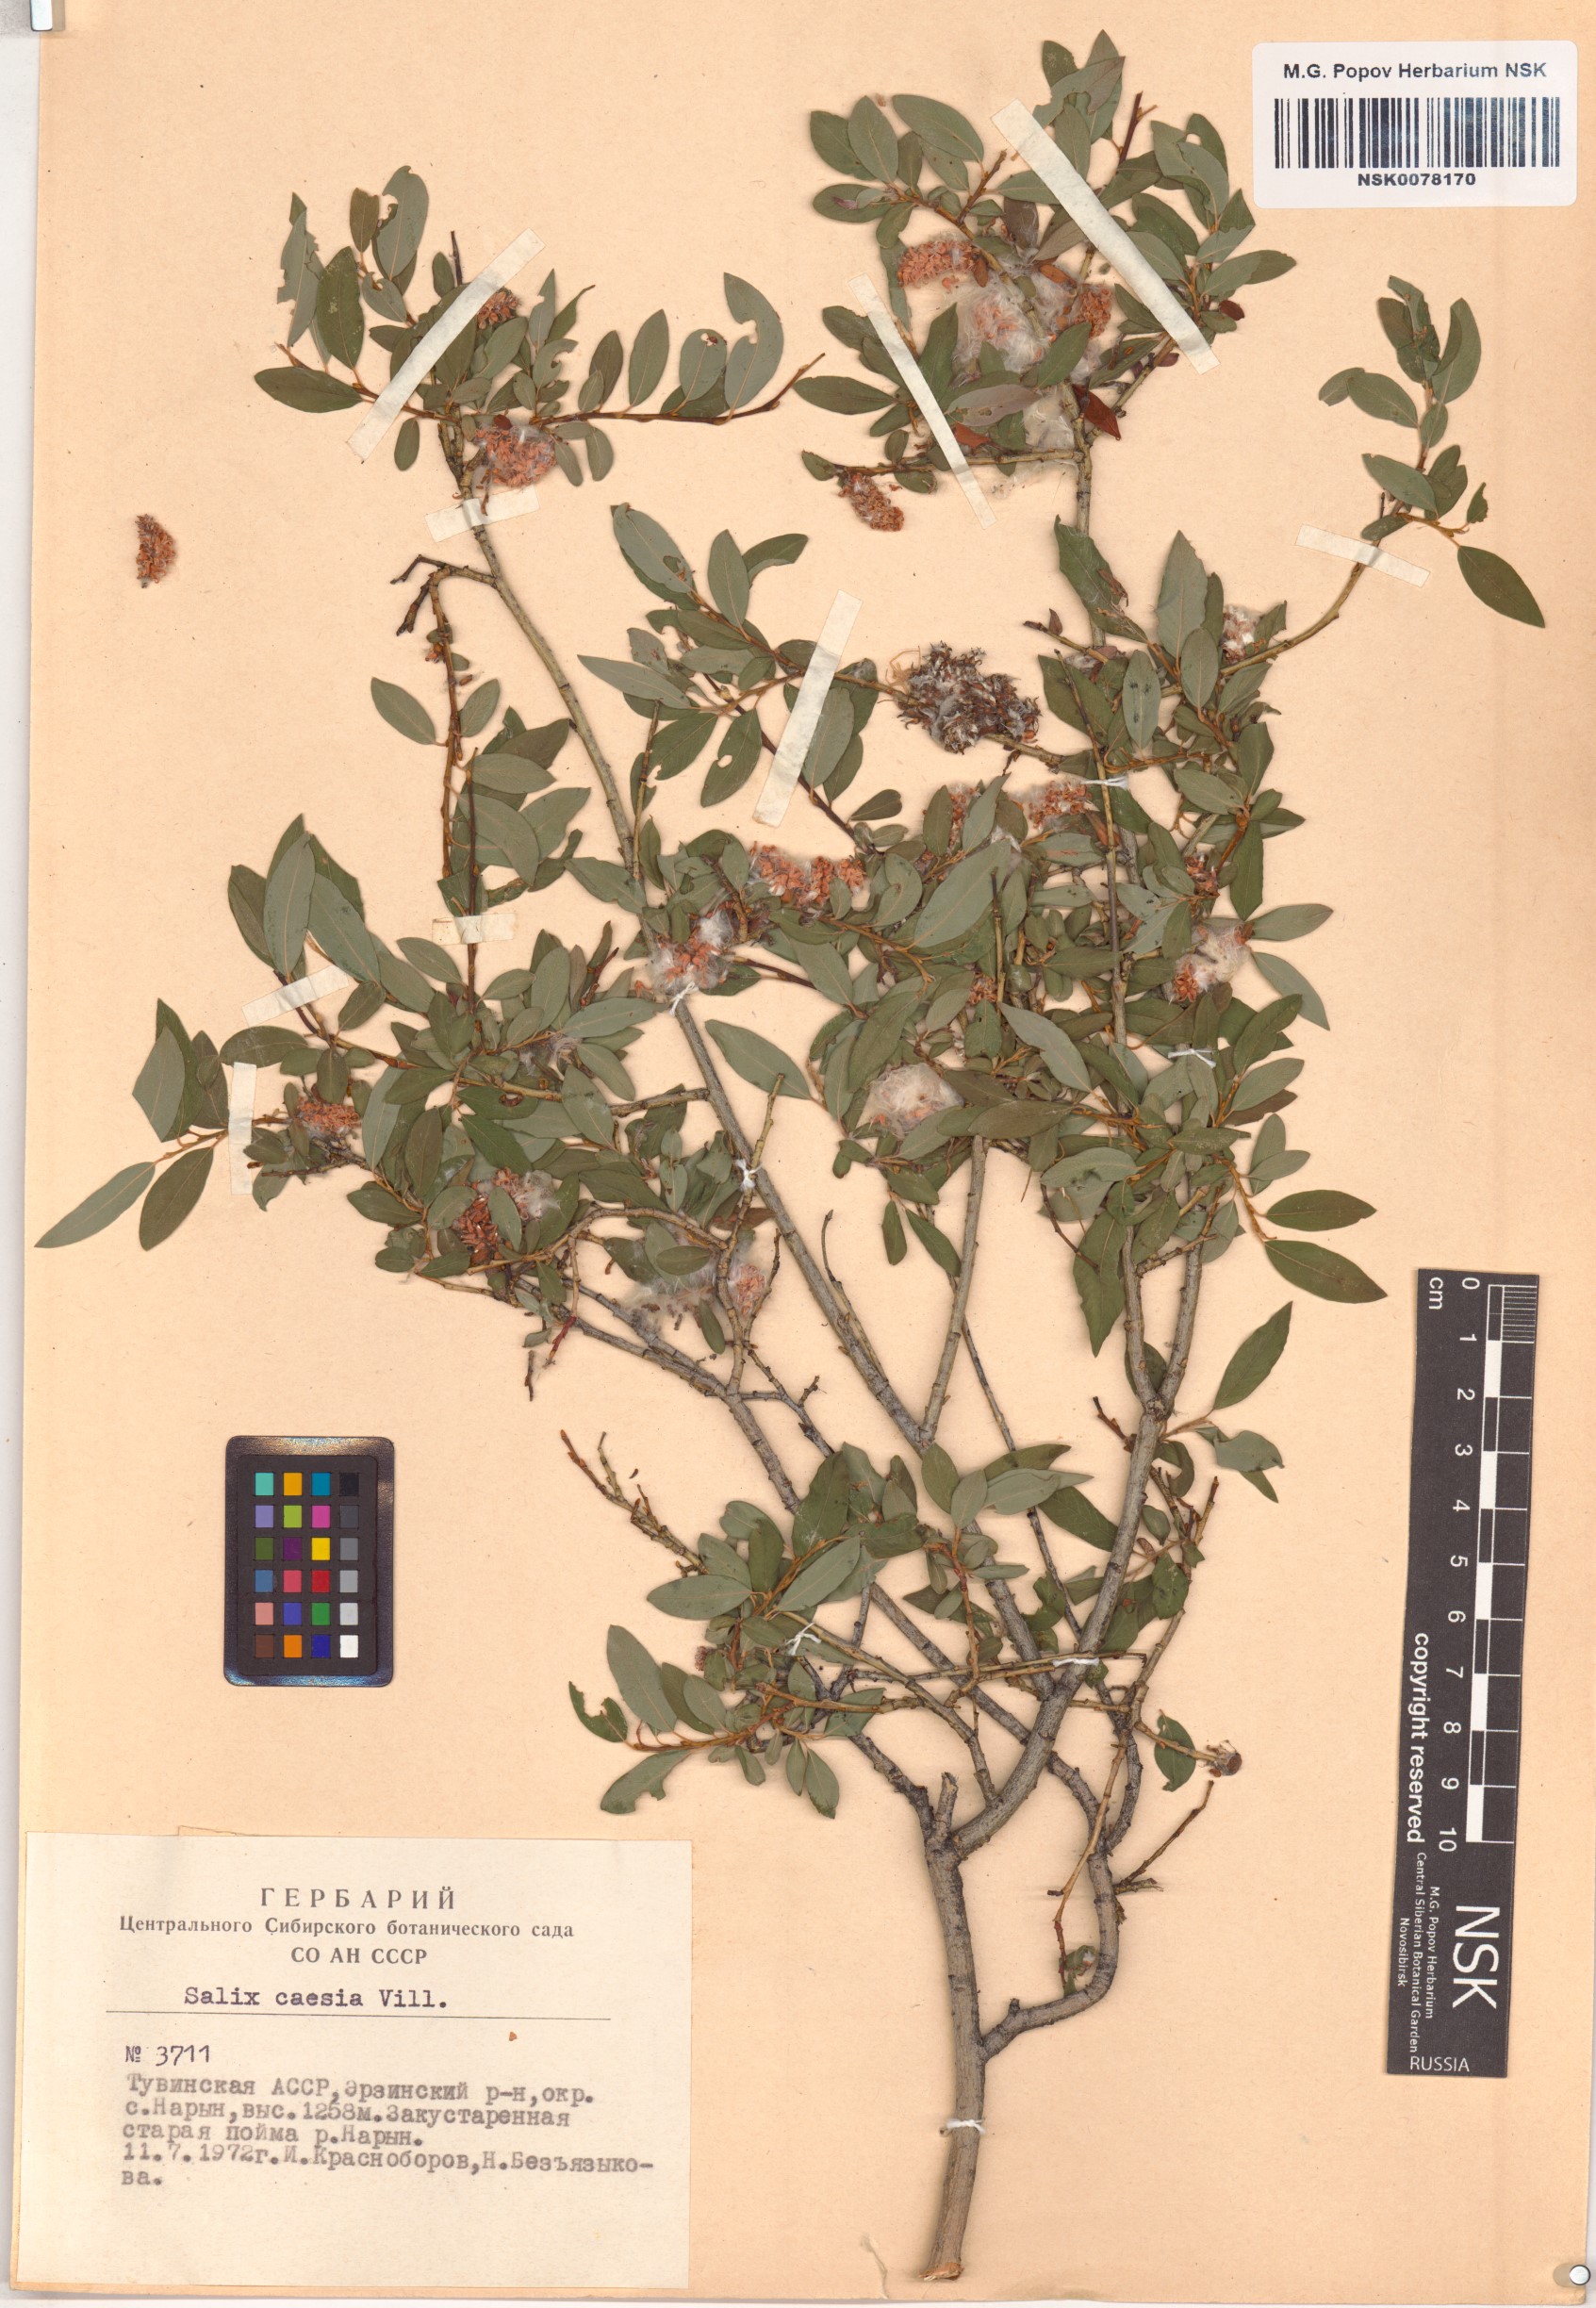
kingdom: Plantae
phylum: Tracheophyta
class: Magnoliopsida
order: Malpighiales
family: Salicaceae
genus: Salix
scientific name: Salix caesia
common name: Blue willow
